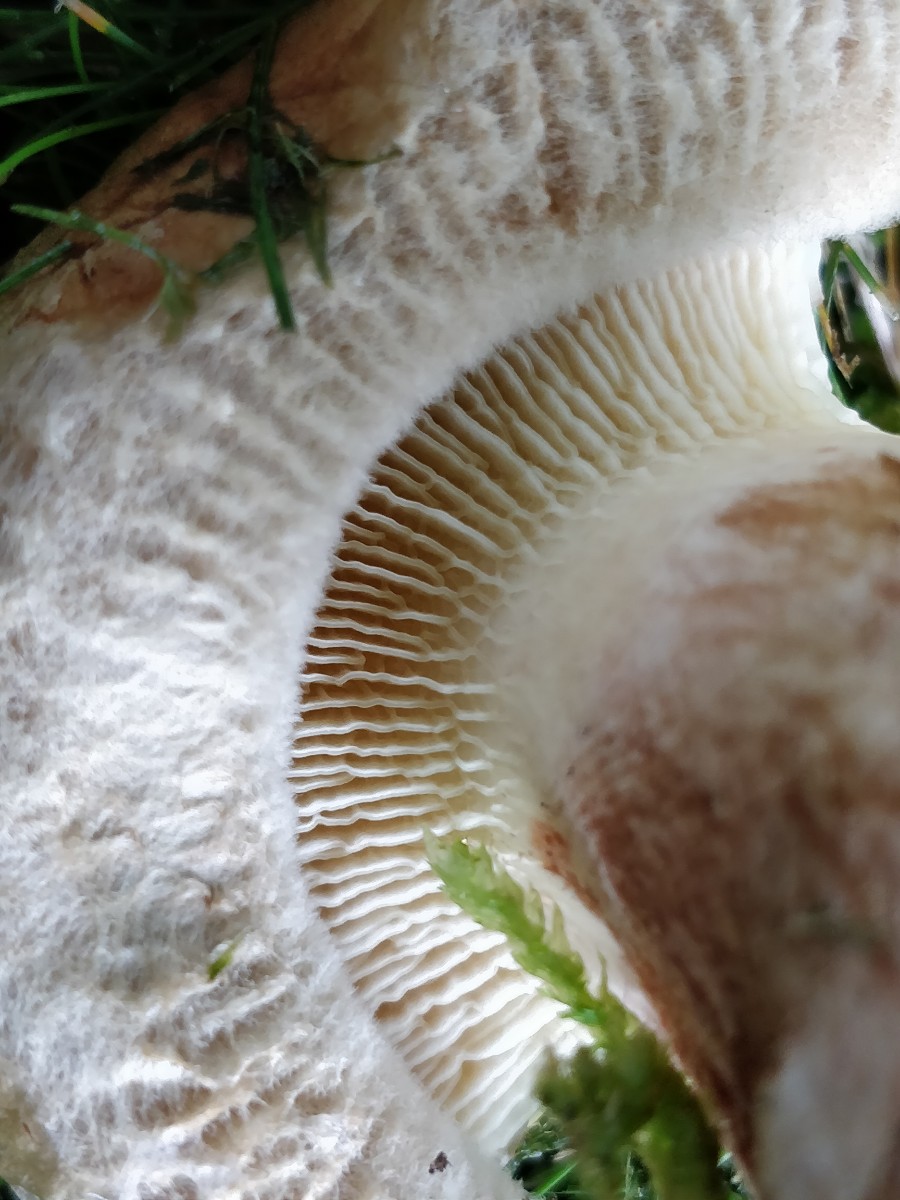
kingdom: Fungi
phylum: Basidiomycota
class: Agaricomycetes
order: Boletales
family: Paxillaceae
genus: Paxillus
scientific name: Paxillus
